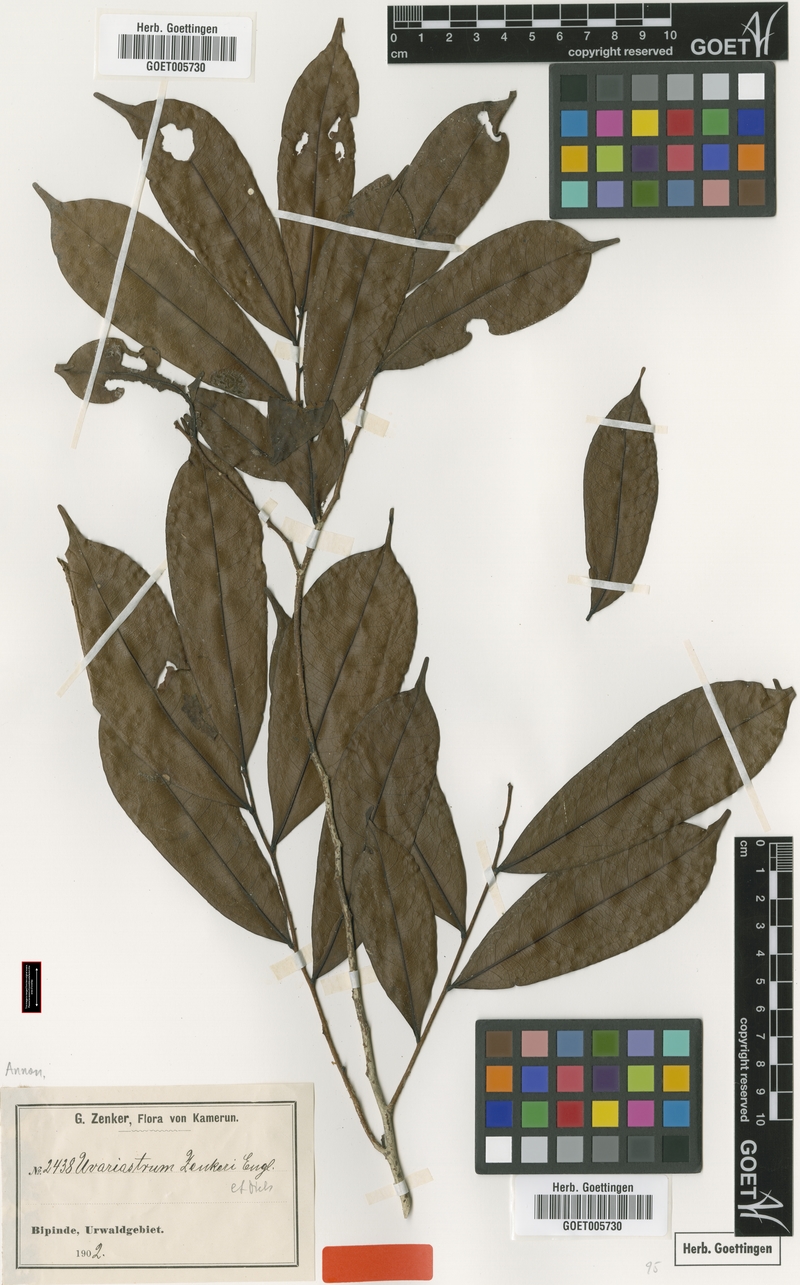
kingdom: Plantae
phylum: Tracheophyta
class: Magnoliopsida
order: Magnoliales
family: Annonaceae
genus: Uvariastrum
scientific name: Uvariastrum zenkeri
